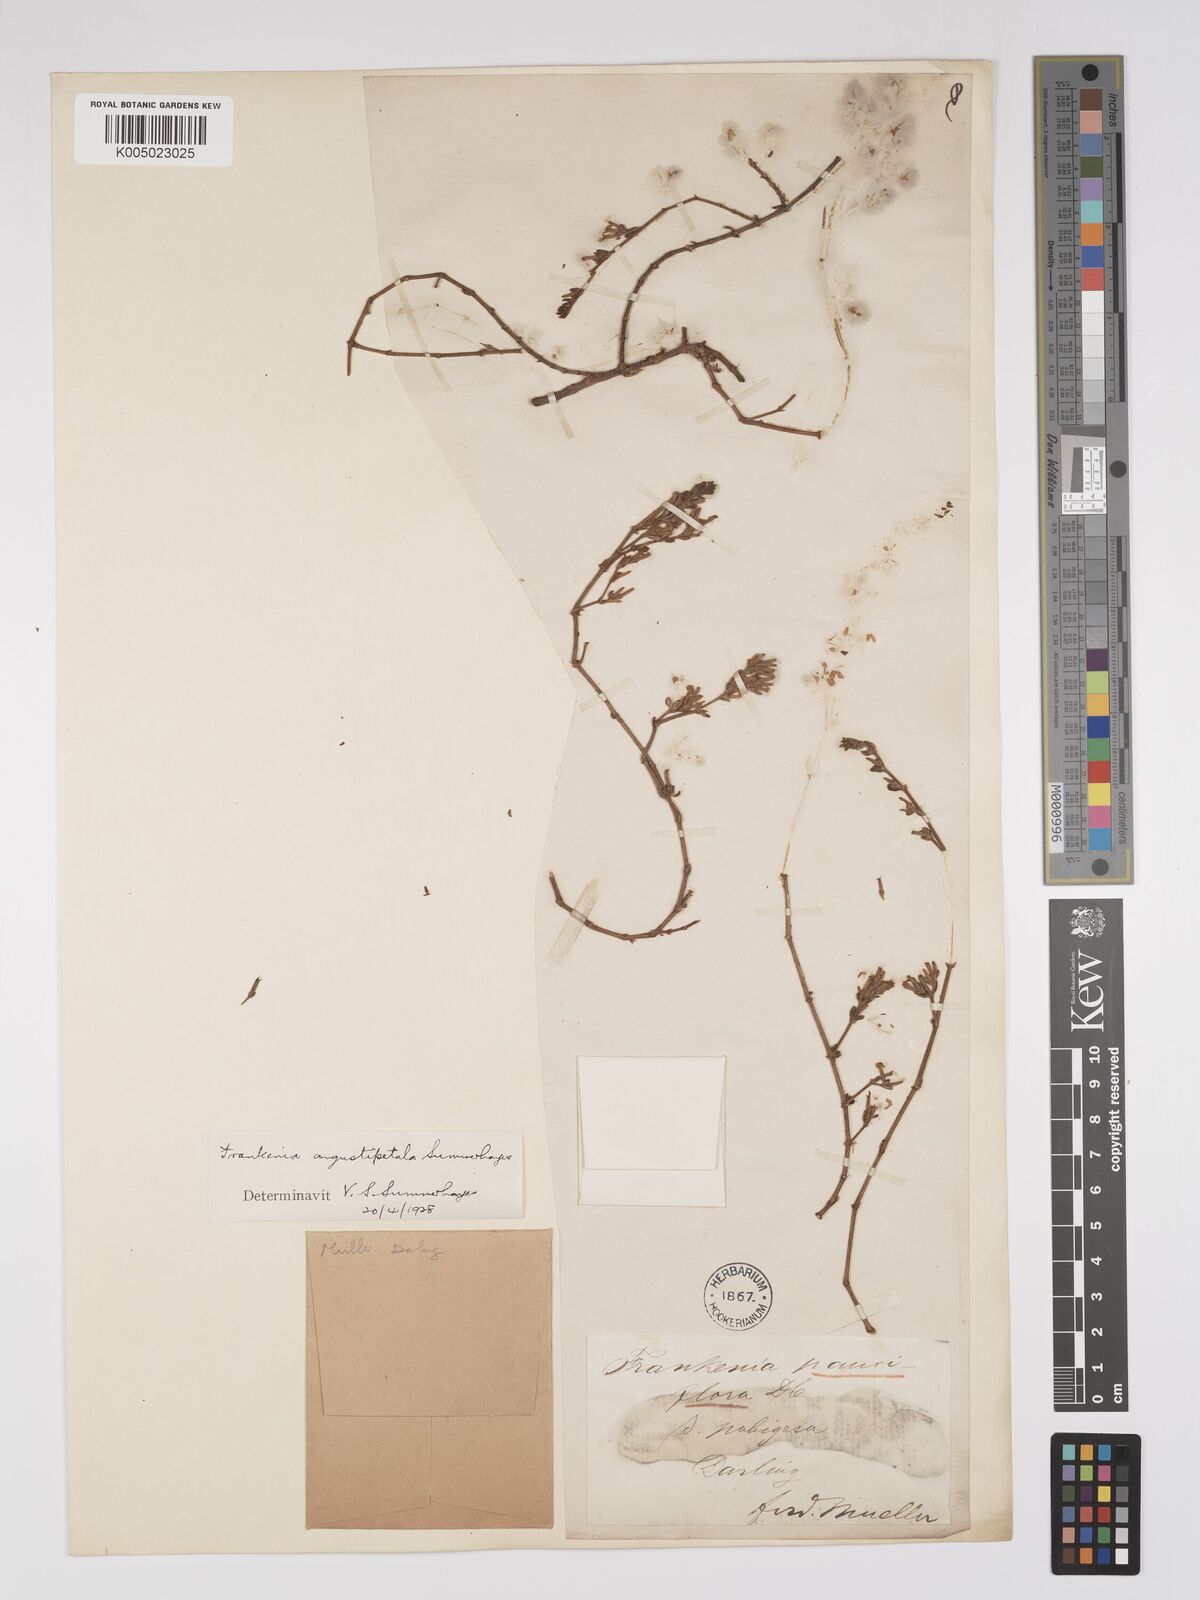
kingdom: Plantae
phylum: Tracheophyta
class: Magnoliopsida
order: Caryophyllales
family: Frankeniaceae
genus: Frankenia
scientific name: Frankenia angustipetala
